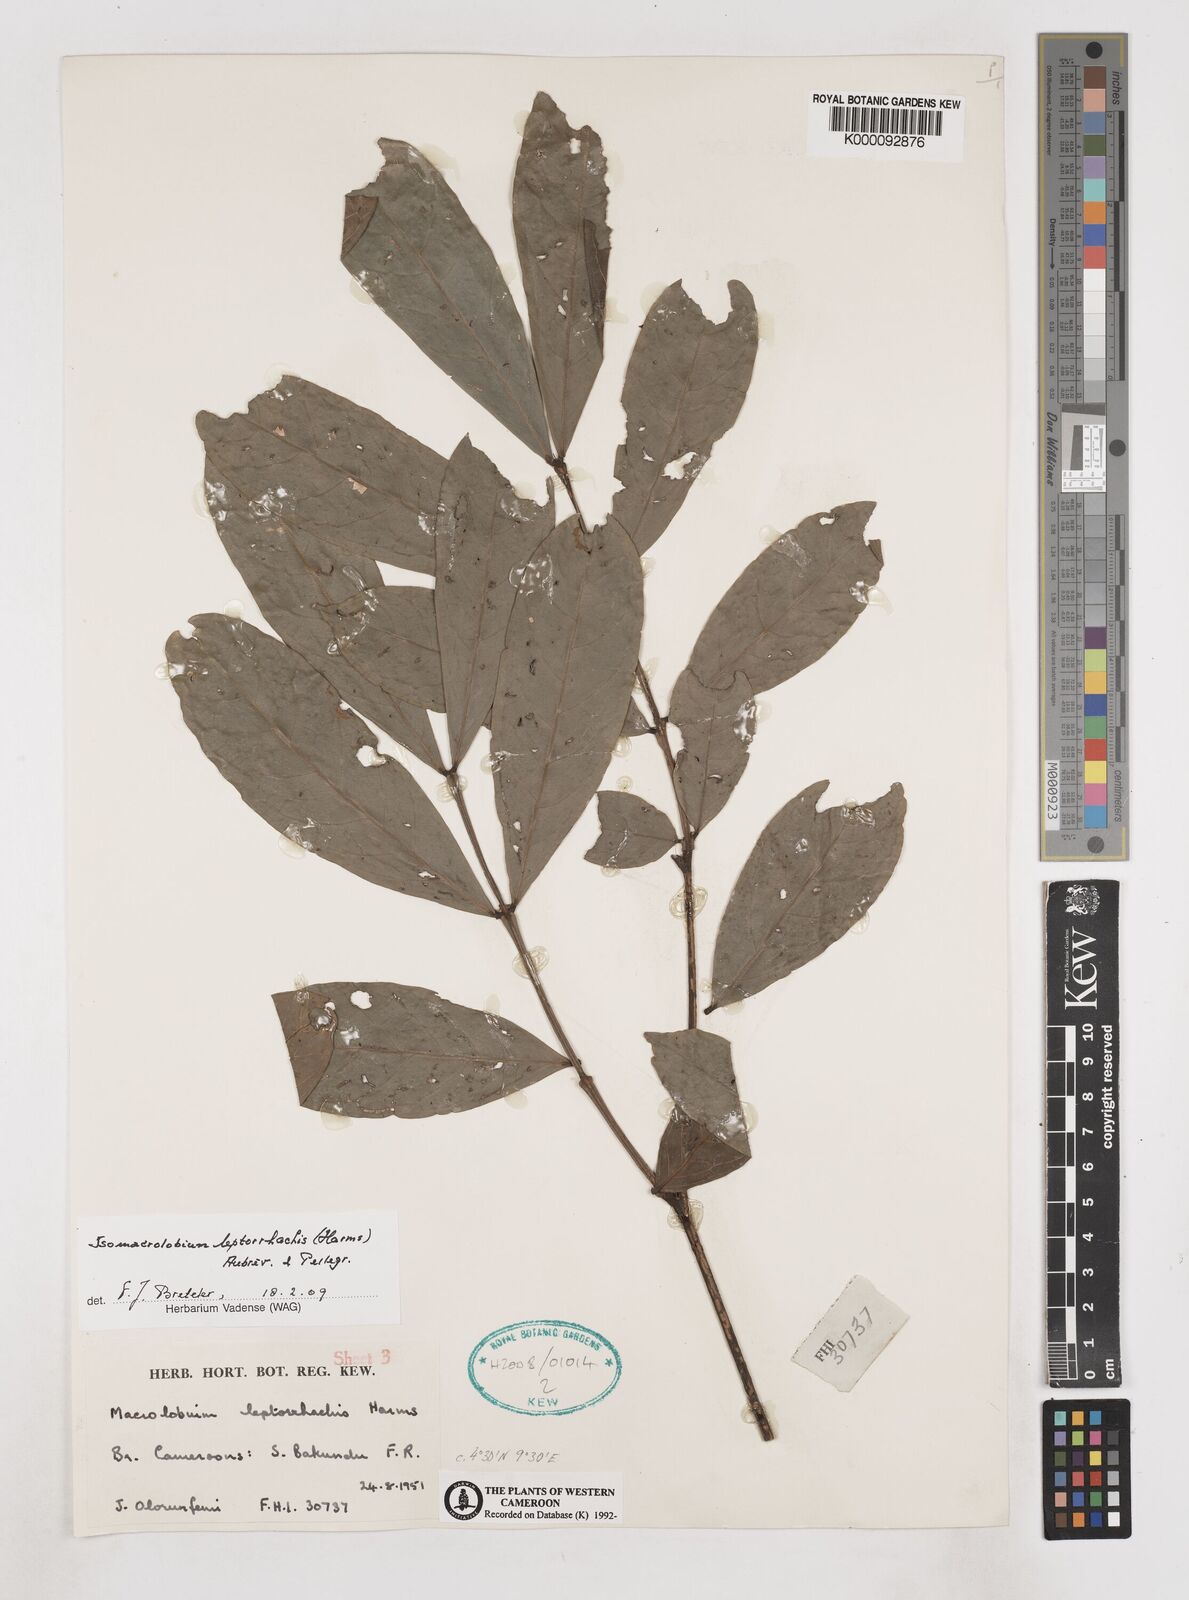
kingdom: Plantae
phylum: Tracheophyta
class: Magnoliopsida
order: Fabales
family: Fabaceae
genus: Englerodendron
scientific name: Englerodendron
